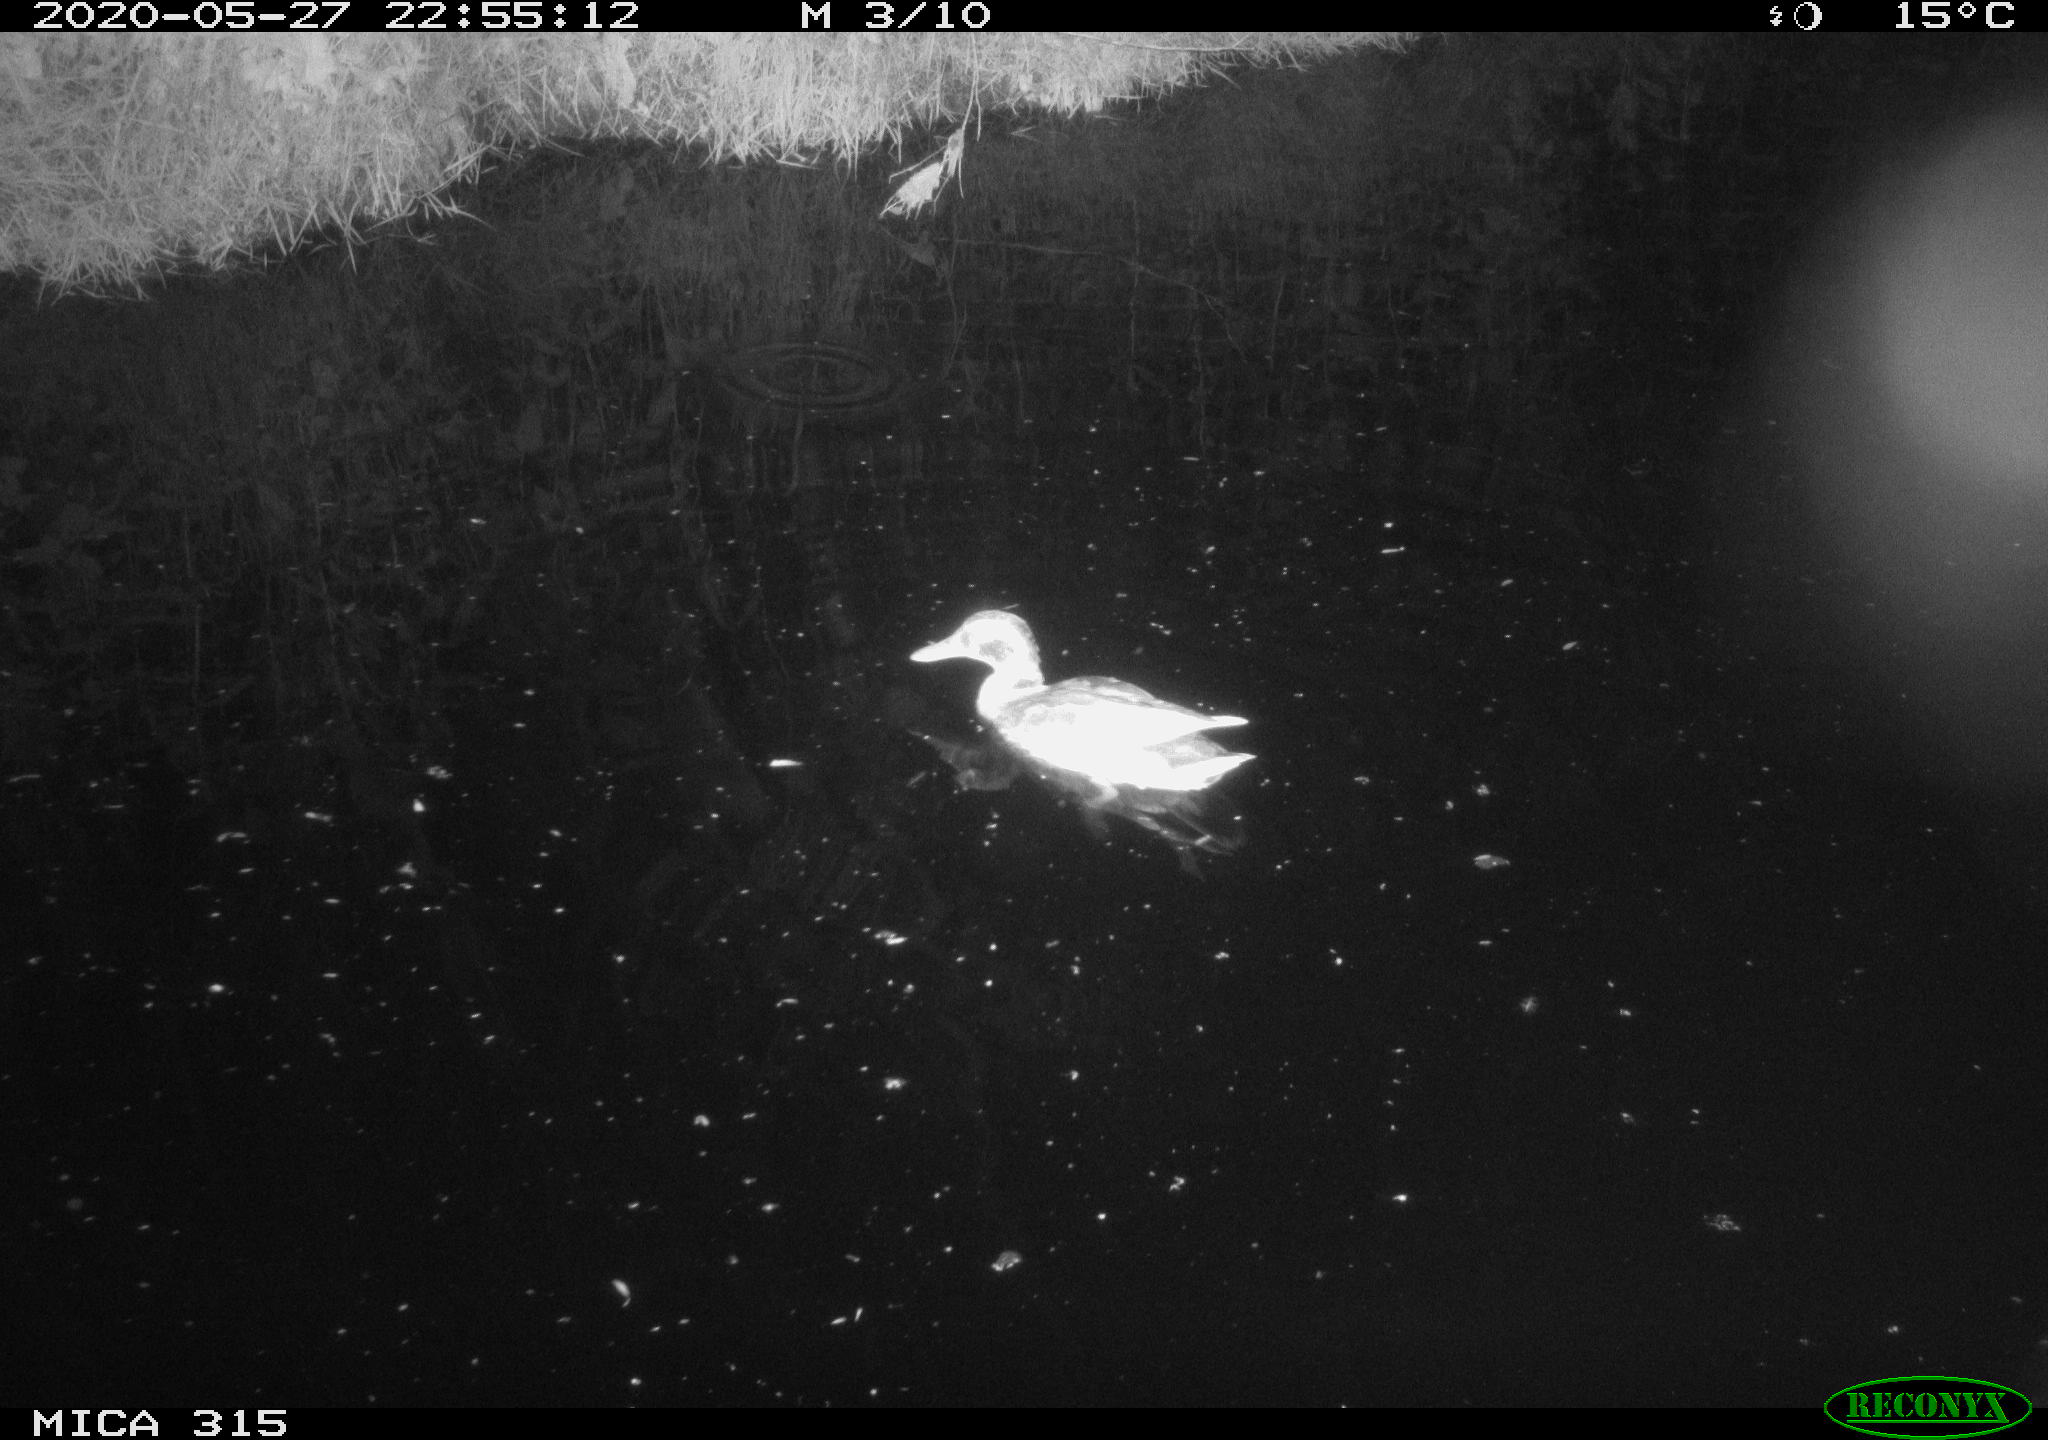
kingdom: Animalia
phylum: Chordata
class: Aves
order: Anseriformes
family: Anatidae
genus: Anas
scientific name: Anas platyrhynchos
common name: Mallard
